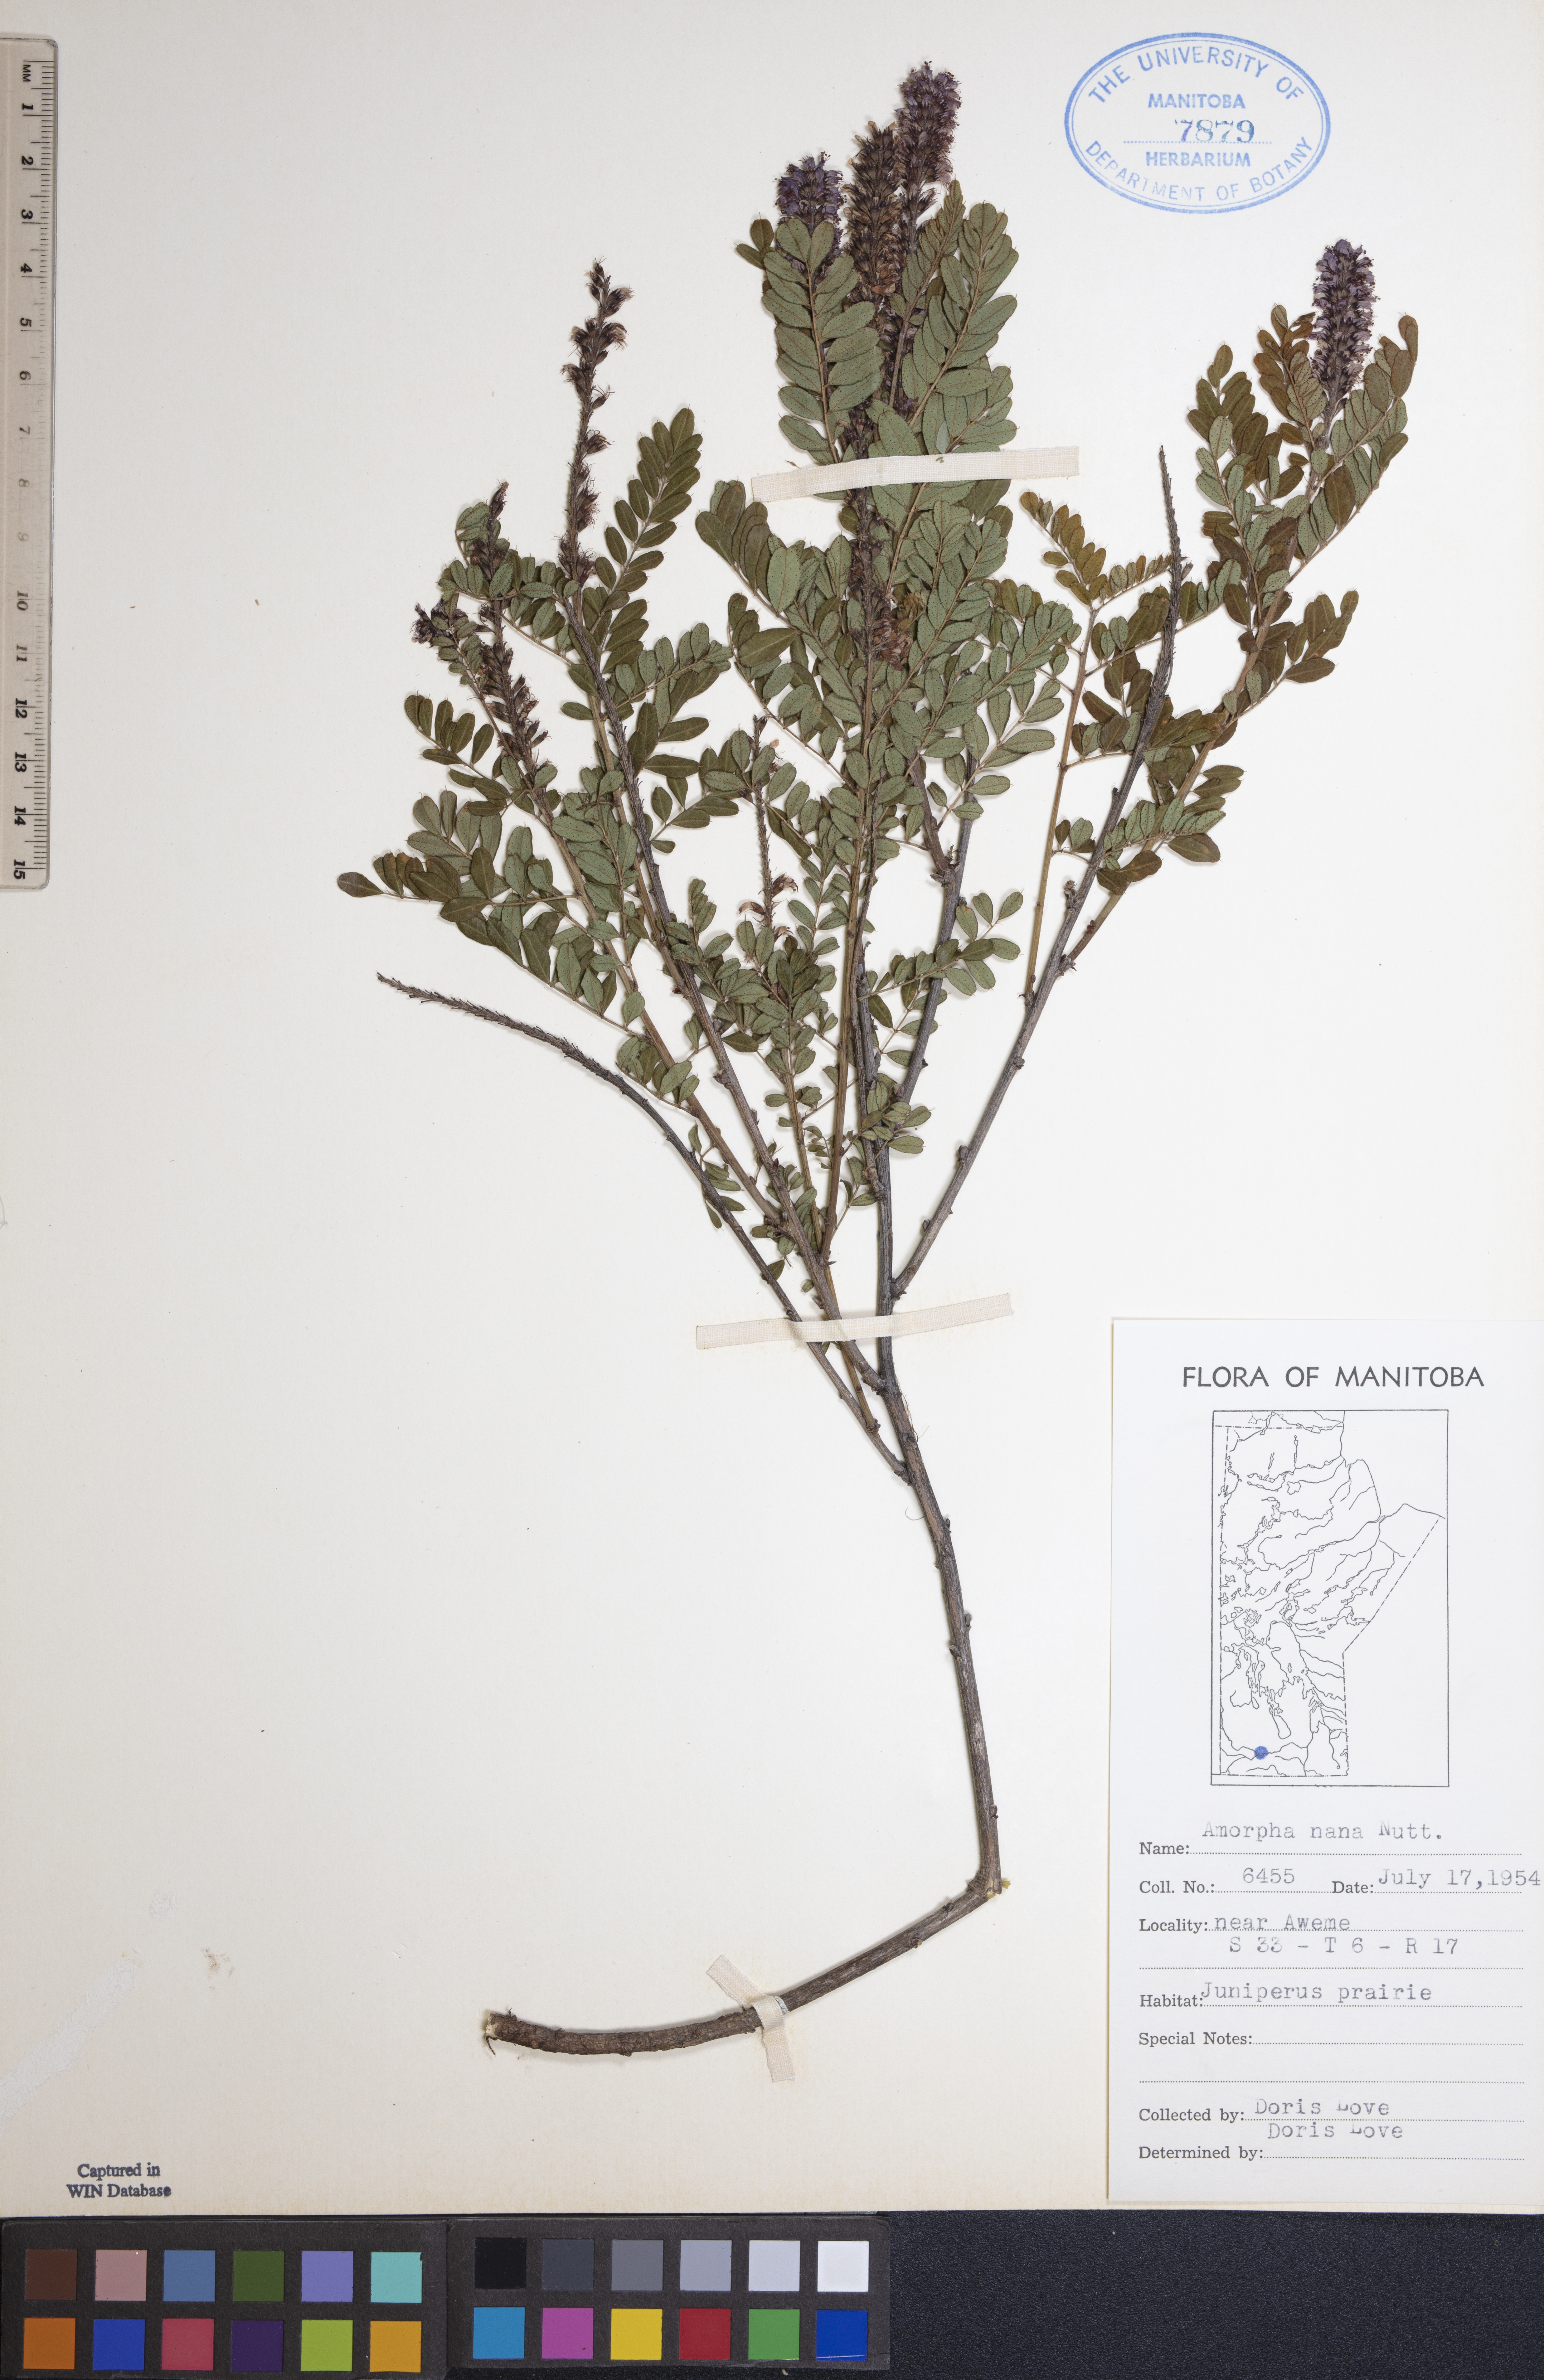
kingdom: Plantae
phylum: Tracheophyta
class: Magnoliopsida
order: Fabales
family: Fabaceae
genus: Amorpha
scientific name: Amorpha nana
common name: Fragrant false indigo
